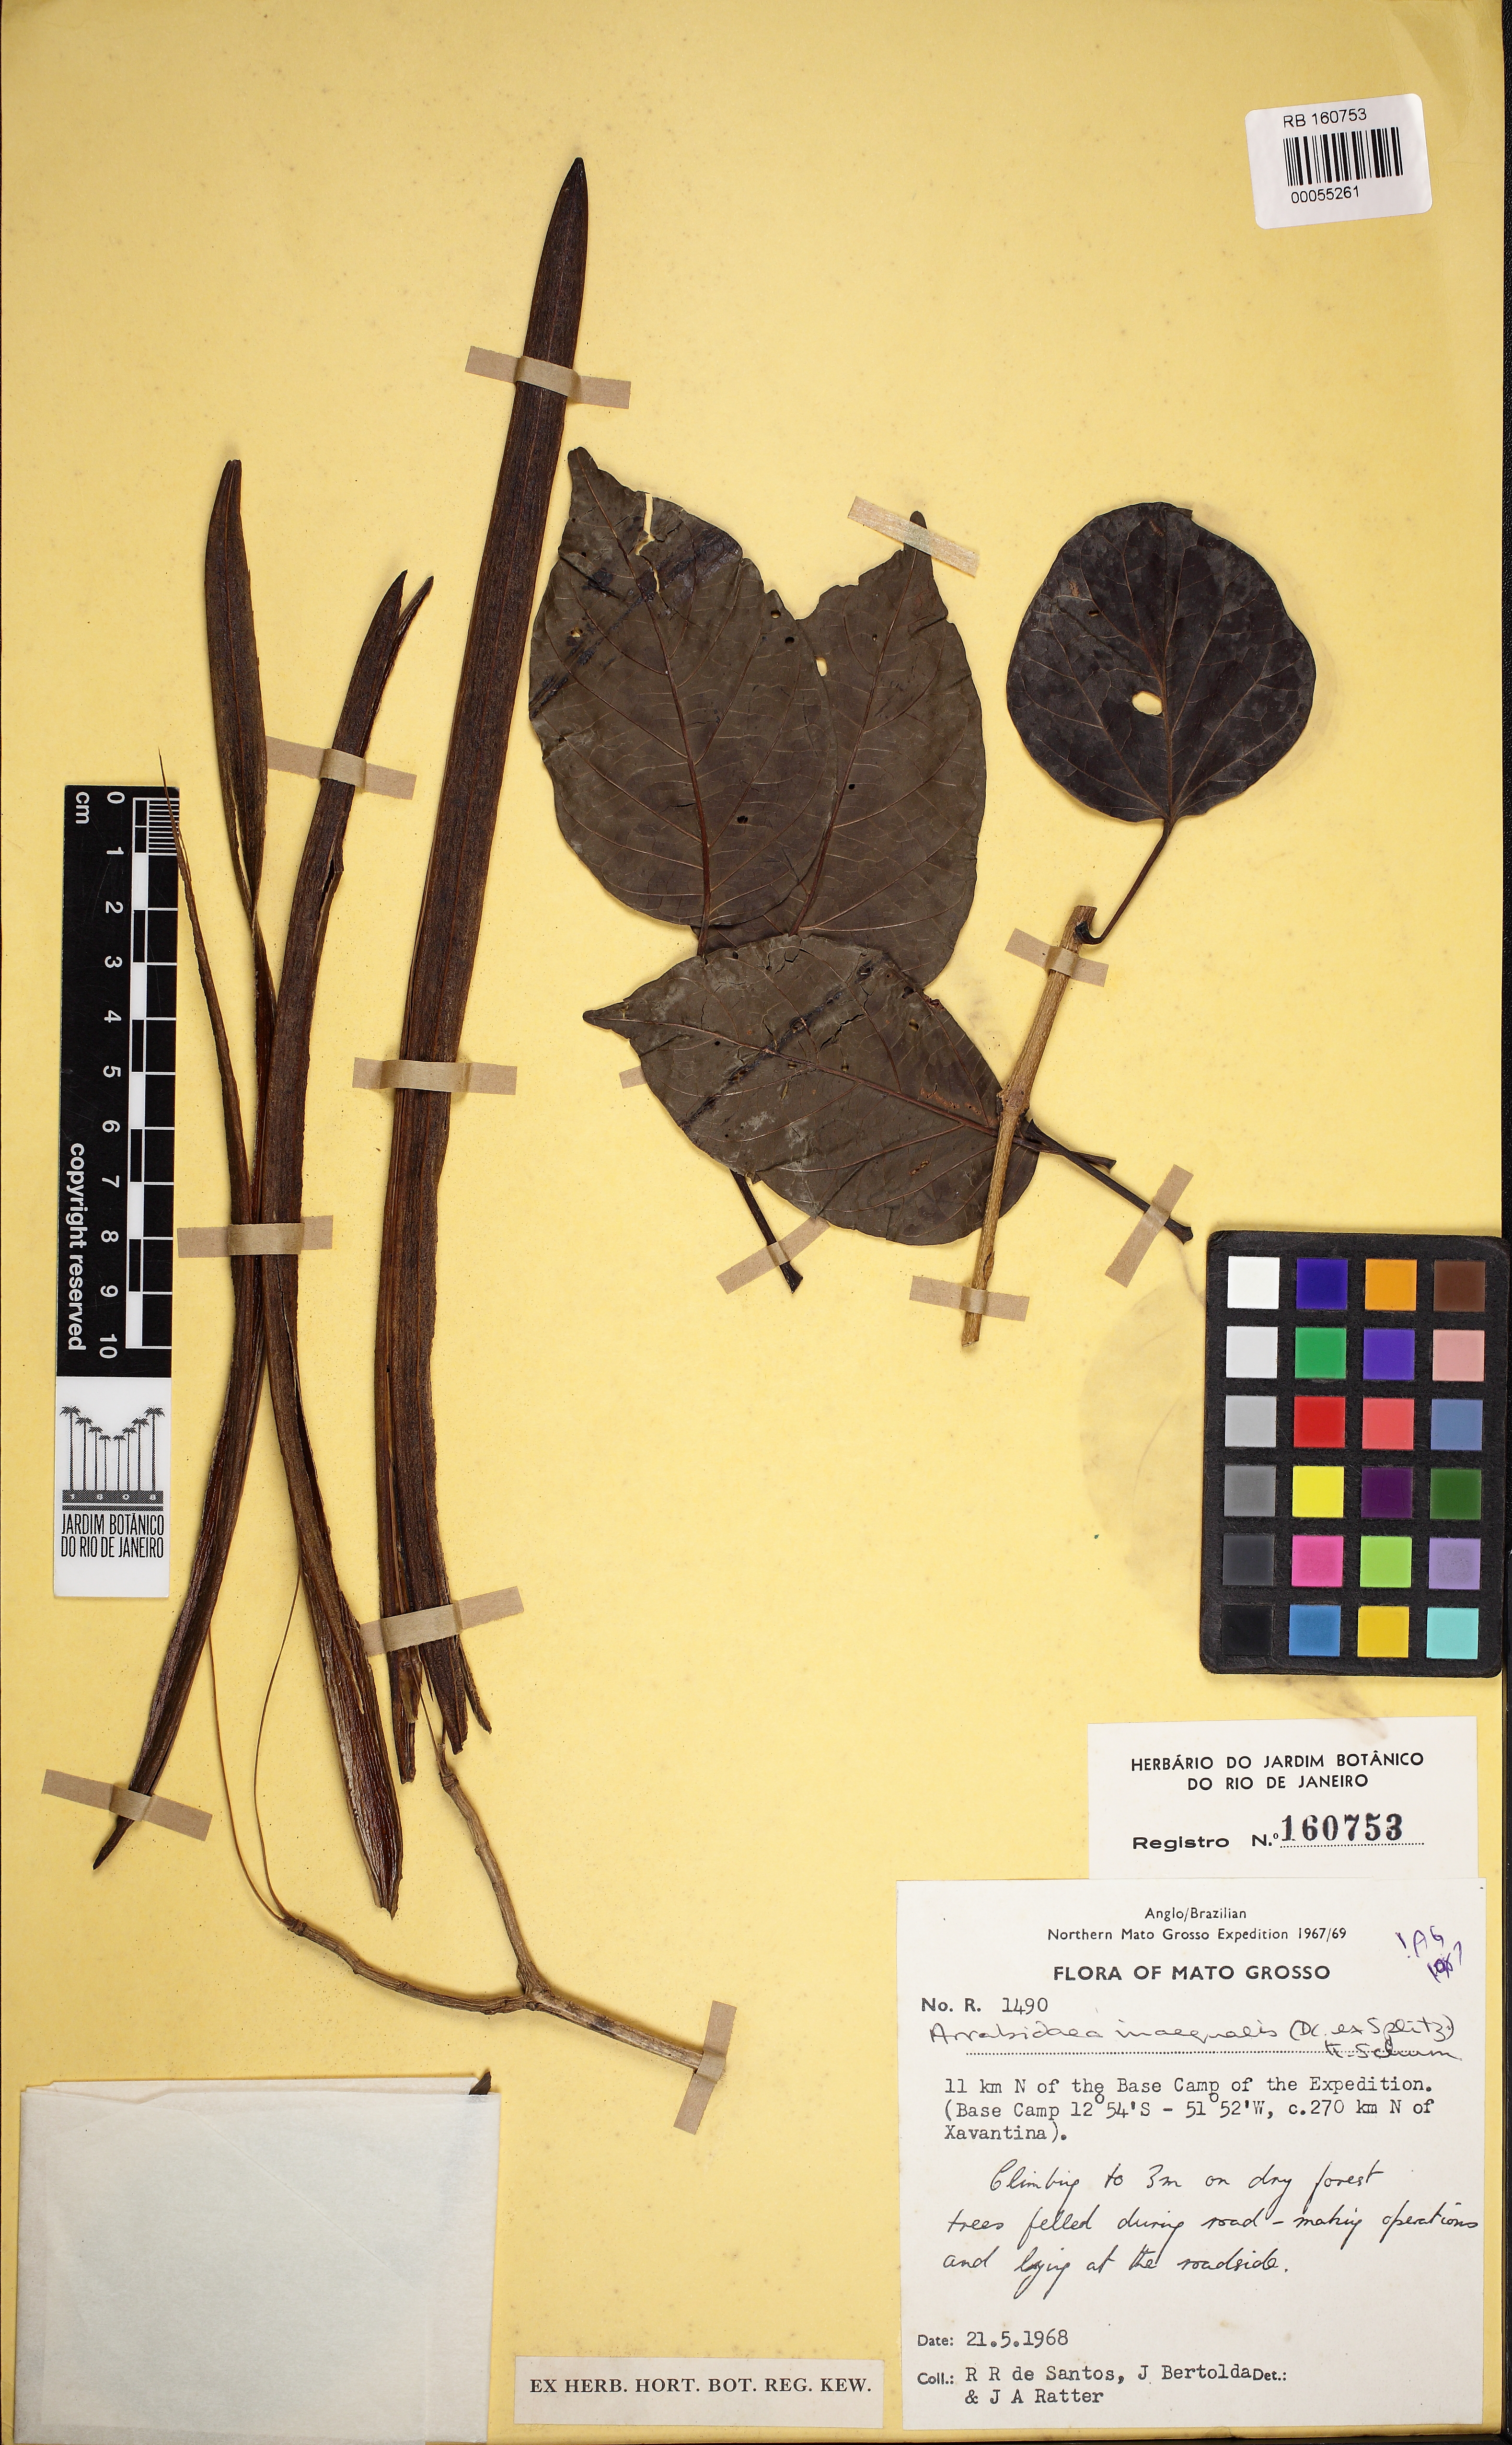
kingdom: Plantae
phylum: Tracheophyta
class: Magnoliopsida
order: Lamiales
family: Bignoniaceae
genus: Cuspidaria
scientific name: Cuspidaria inaequalis
